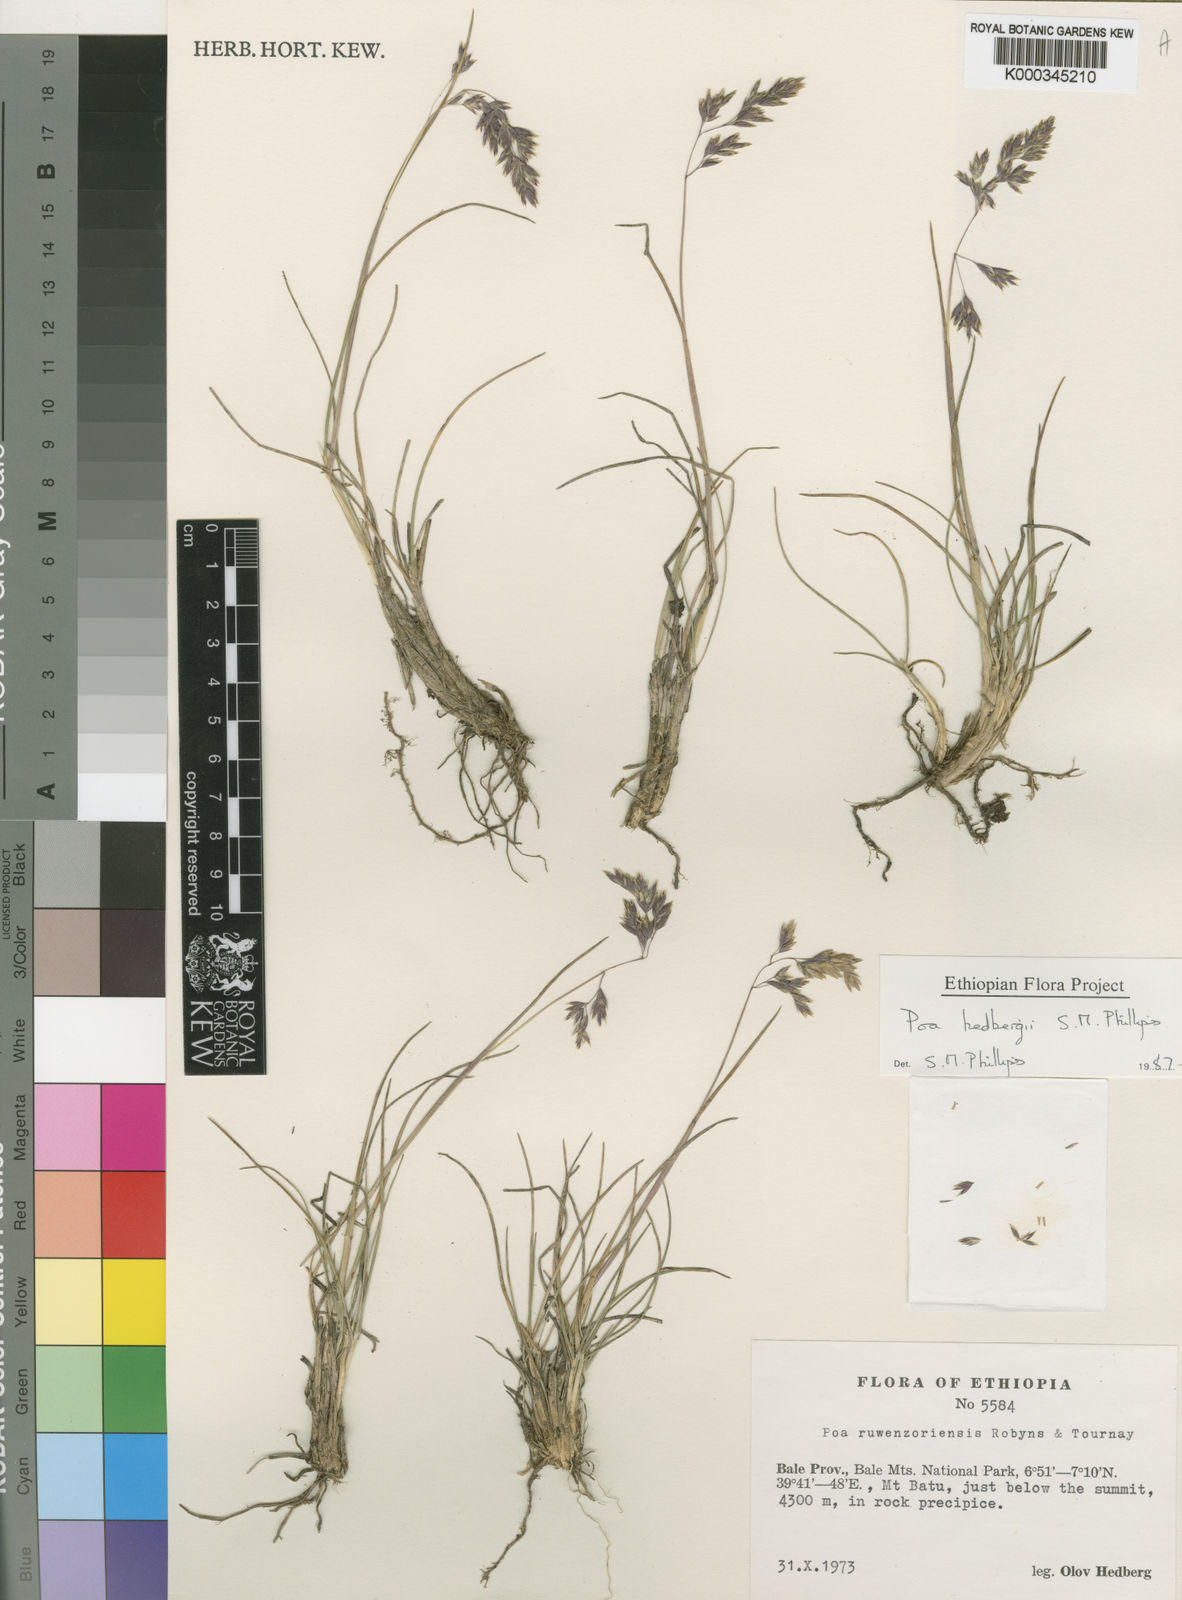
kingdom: Plantae
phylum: Tracheophyta
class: Liliopsida
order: Poales
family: Poaceae
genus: Poa
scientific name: Poa hedbergii
